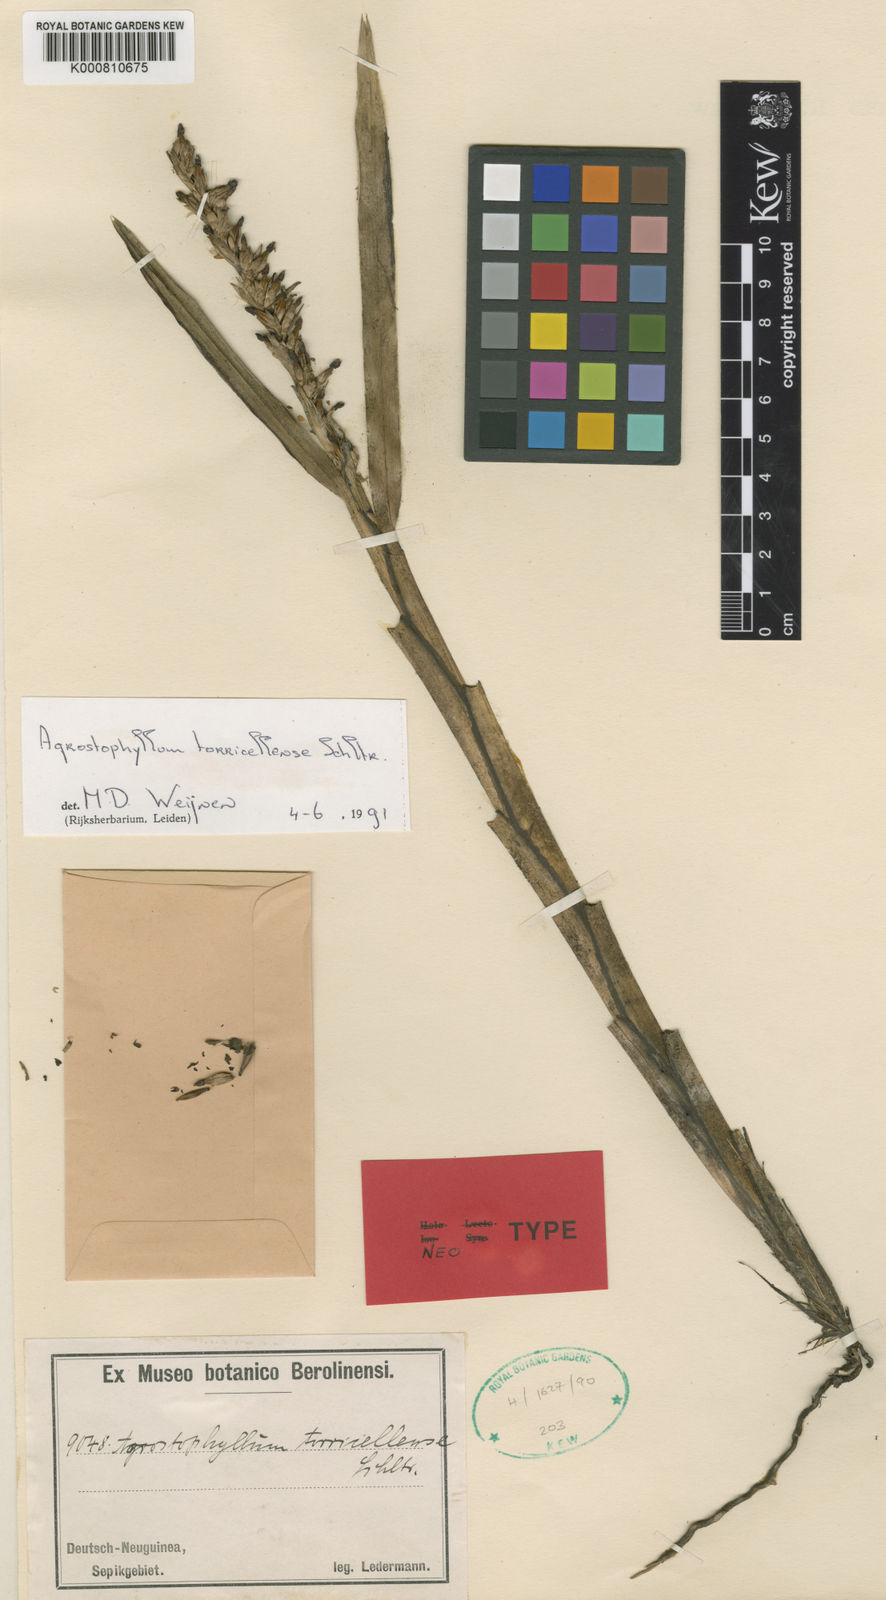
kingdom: Plantae
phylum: Tracheophyta
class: Liliopsida
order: Asparagales
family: Orchidaceae
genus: Agrostophyllum
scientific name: Agrostophyllum torricellense
